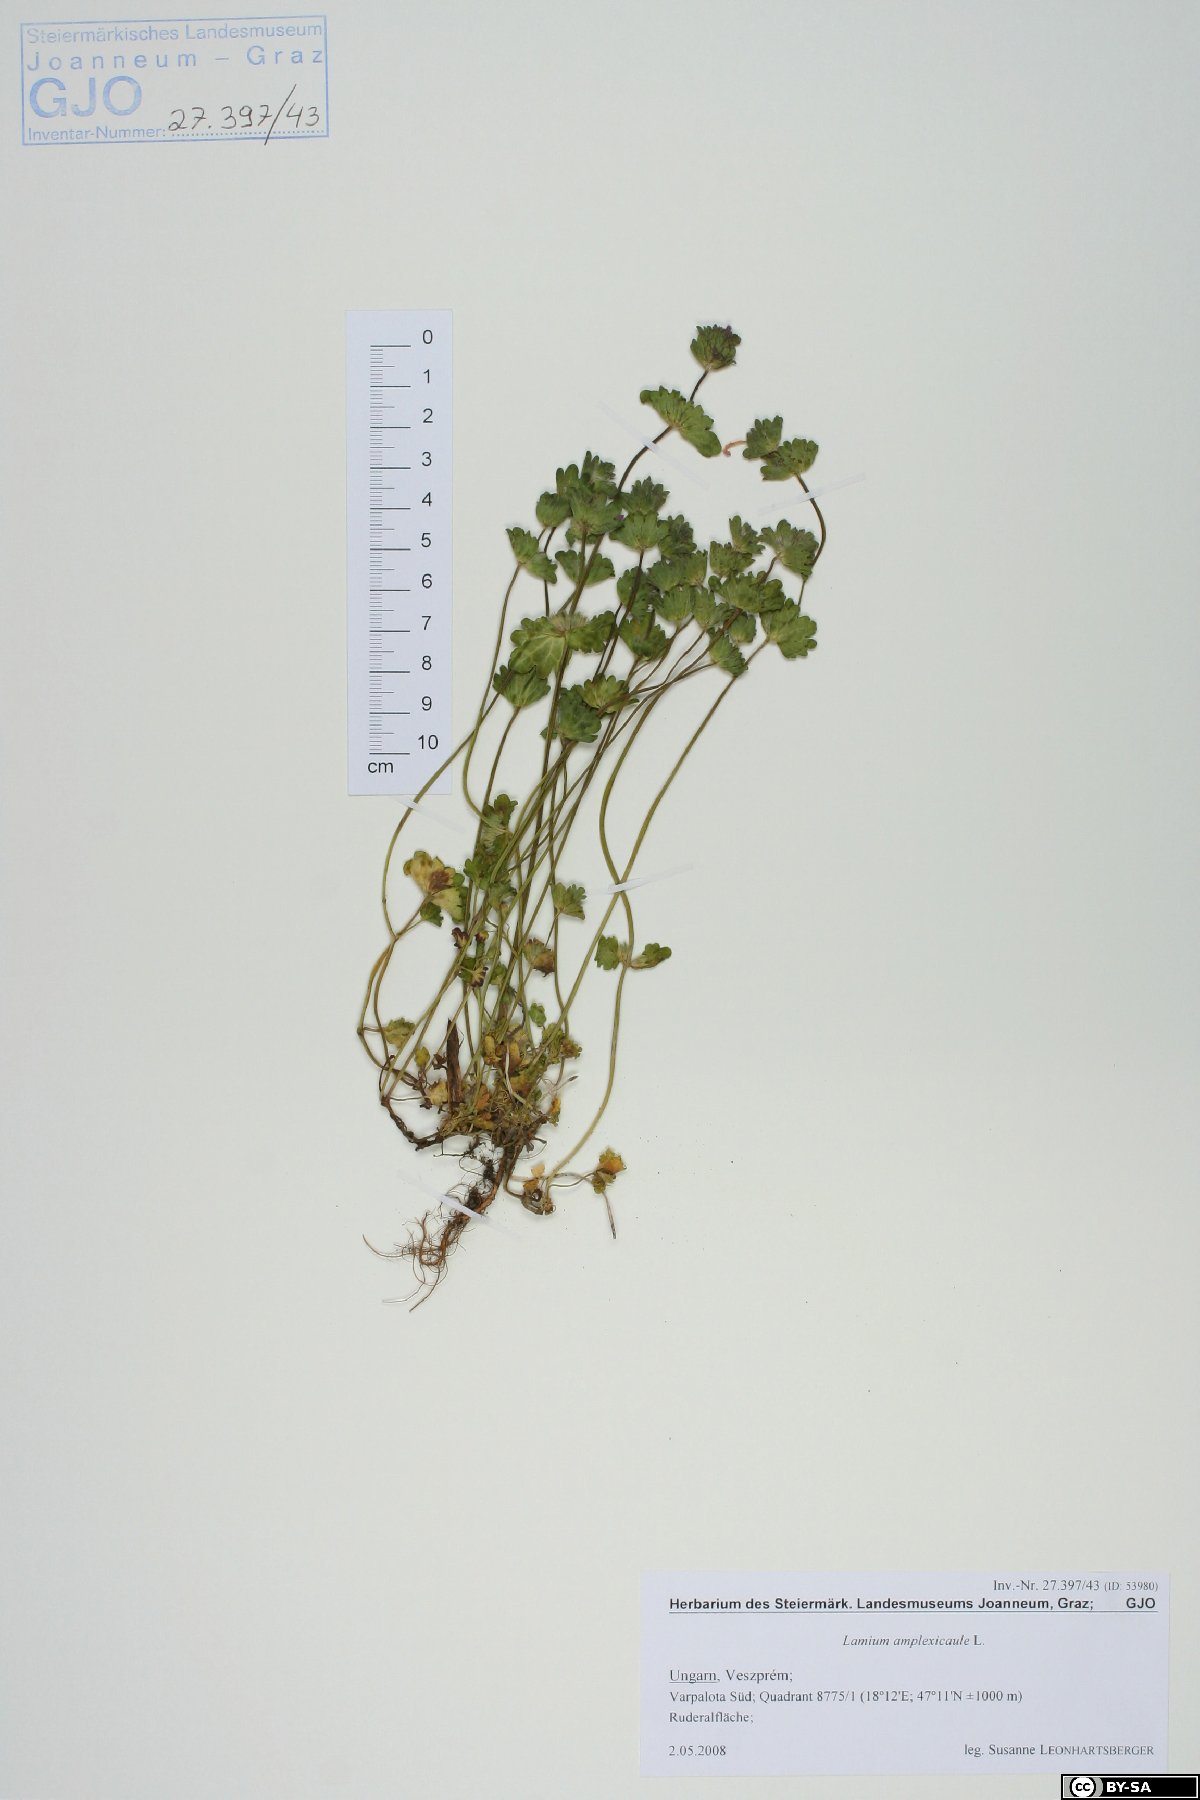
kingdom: Plantae
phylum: Tracheophyta
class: Magnoliopsida
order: Lamiales
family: Lamiaceae
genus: Lamium
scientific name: Lamium amplexicaule
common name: Henbit dead-nettle
